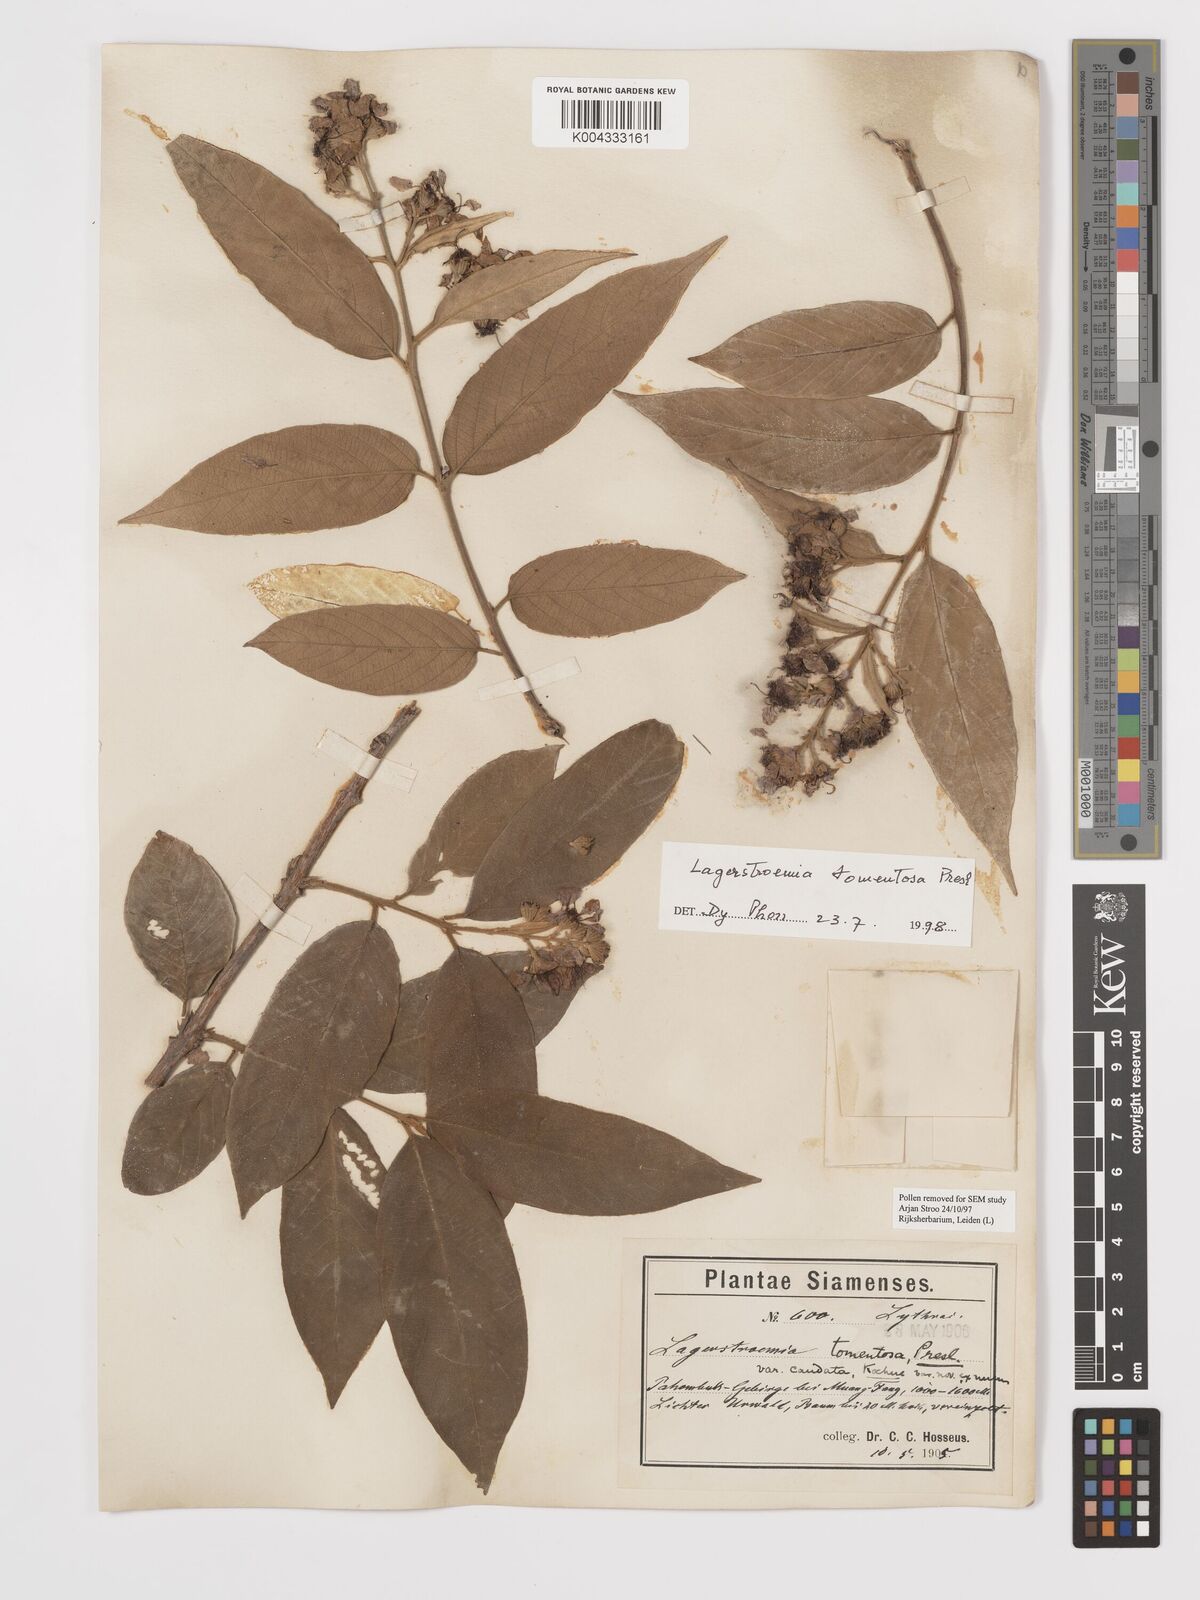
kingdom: Plantae
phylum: Tracheophyta
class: Magnoliopsida
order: Myrtales
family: Lythraceae
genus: Lagerstroemia
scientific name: Lagerstroemia tomentosa
